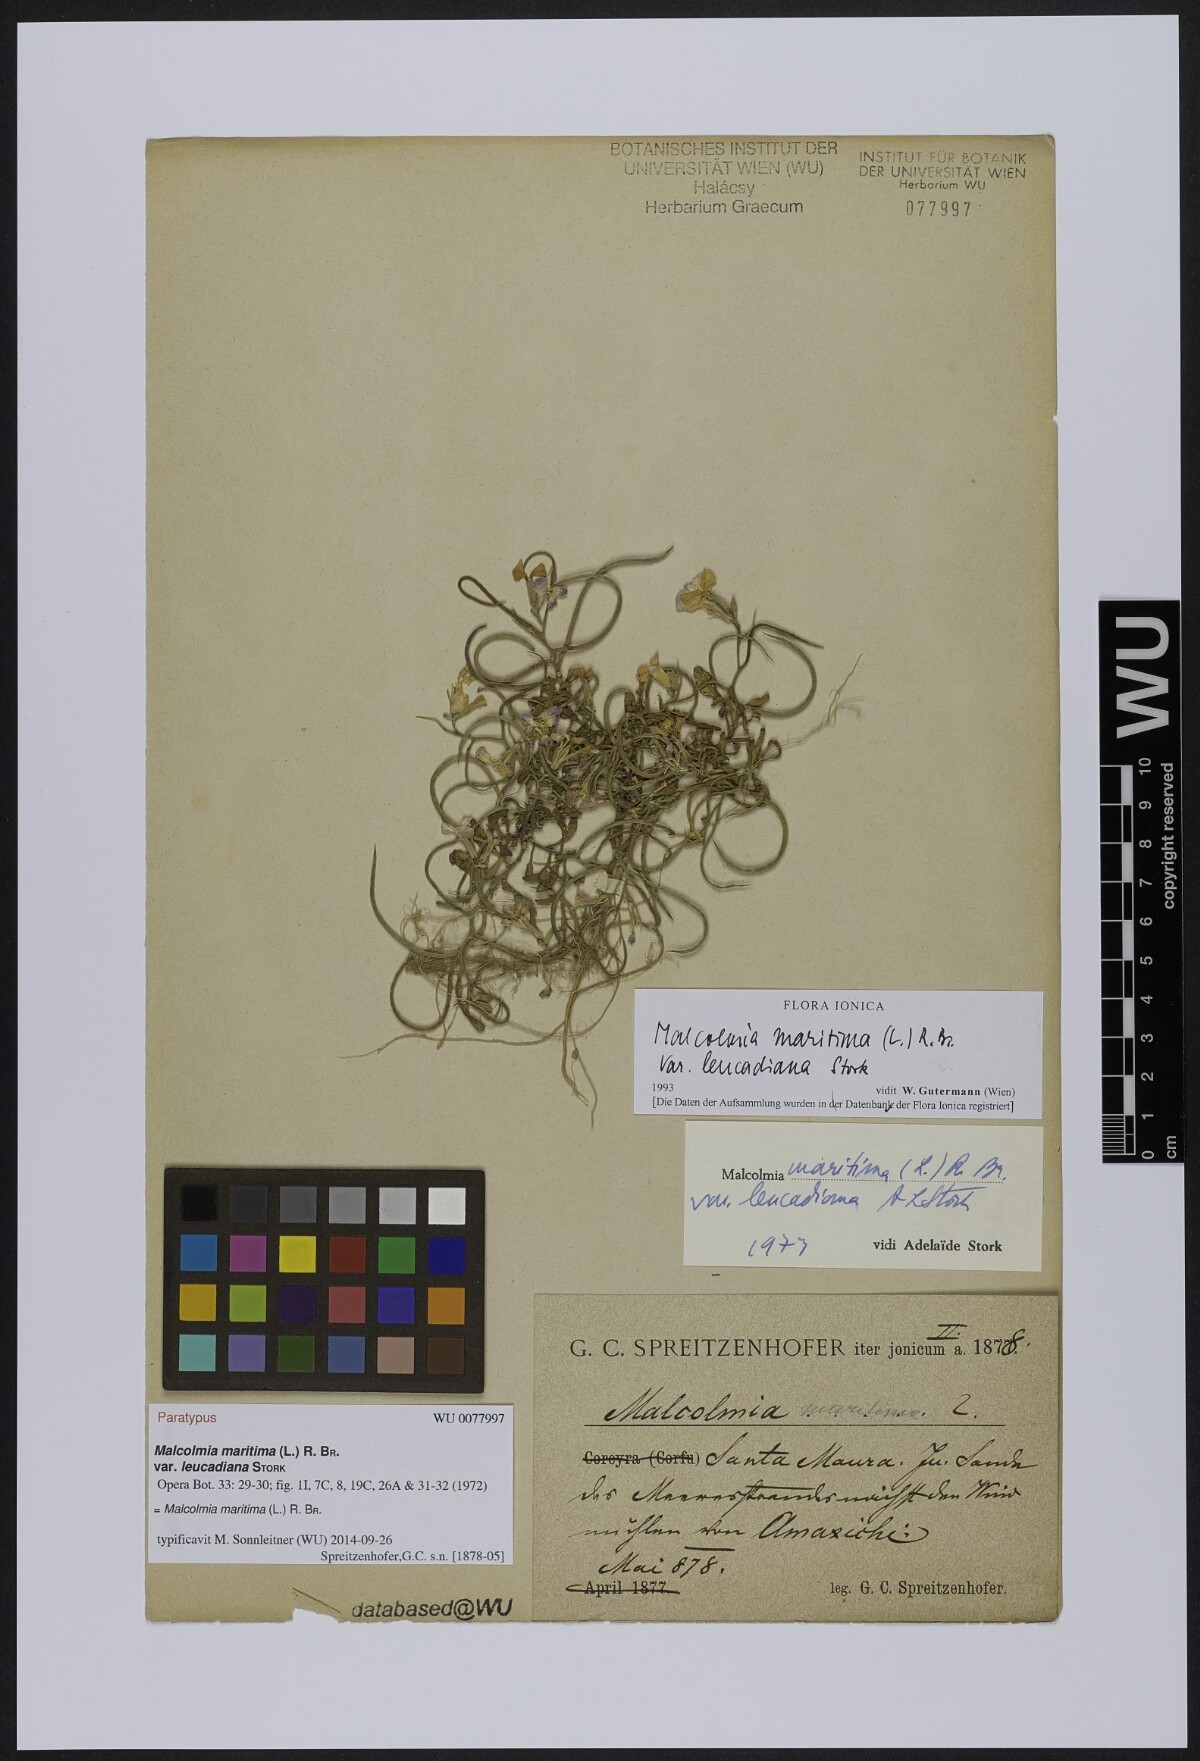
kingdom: Plantae
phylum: Tracheophyta
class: Magnoliopsida
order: Brassicales
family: Brassicaceae
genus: Malcolmia
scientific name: Malcolmia maritima
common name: Virginia stock
